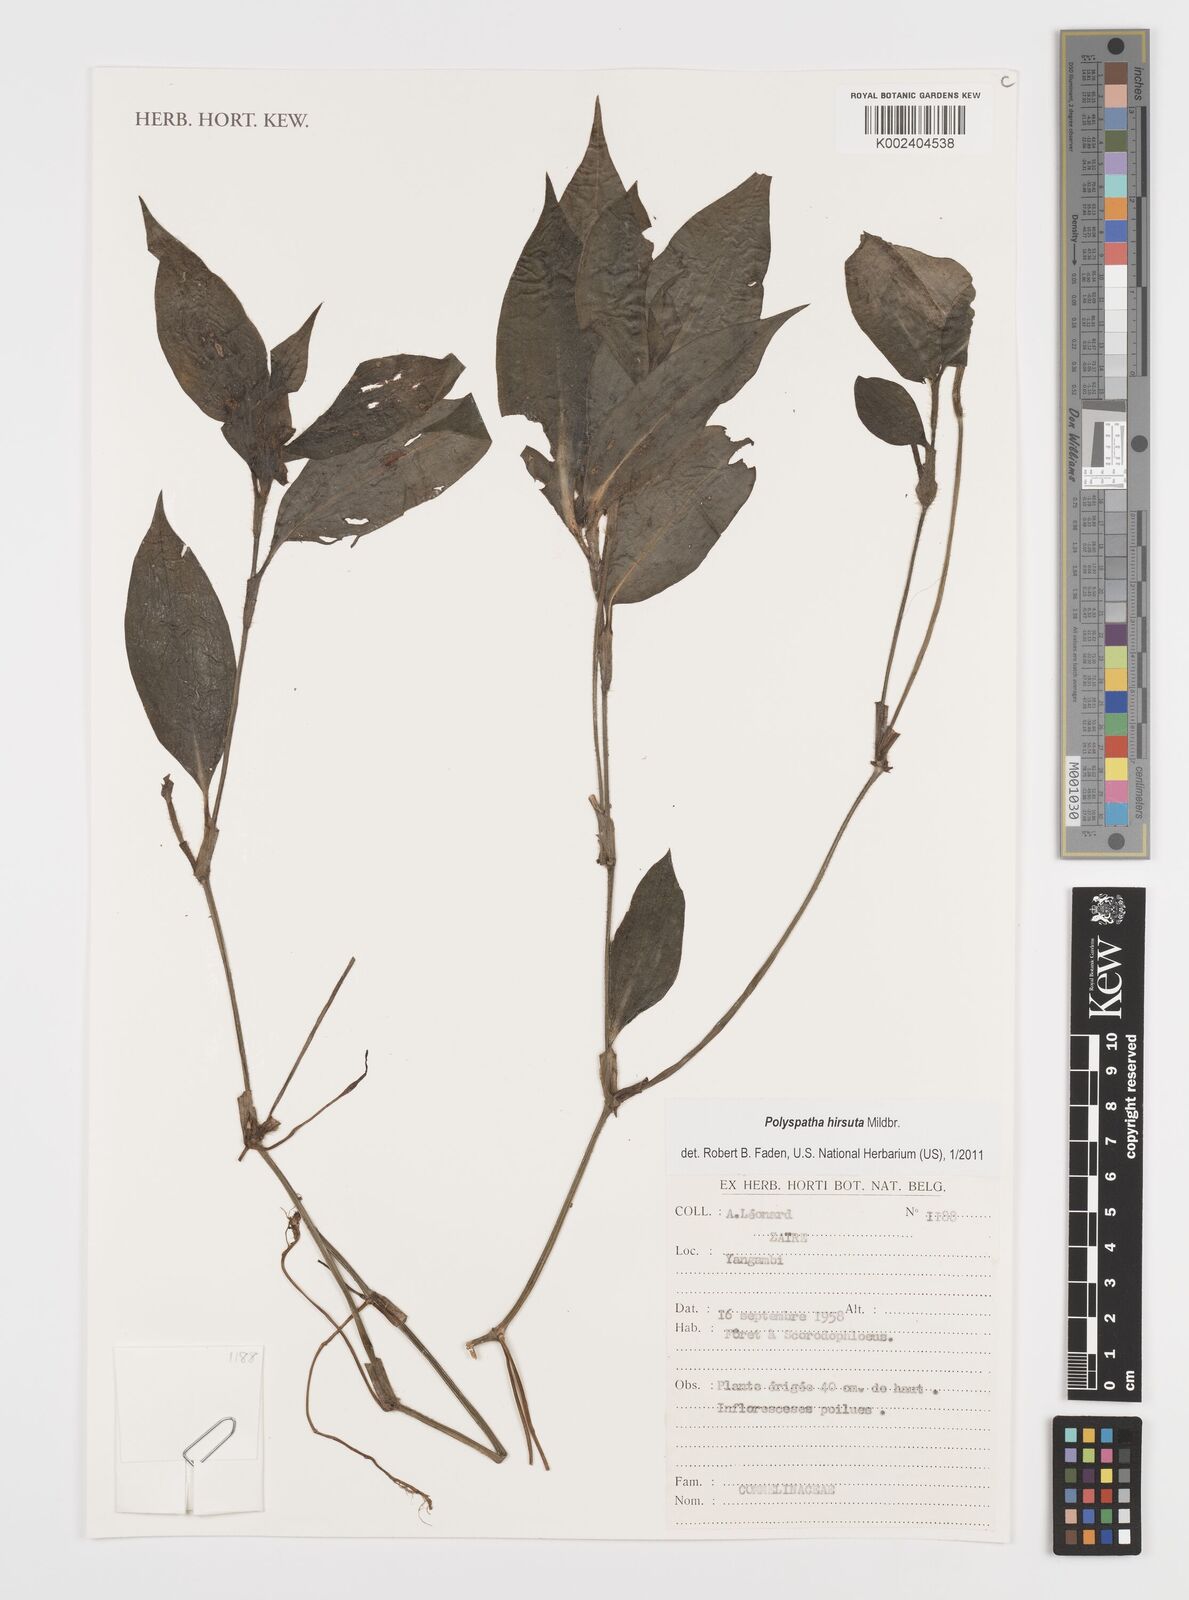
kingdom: Plantae
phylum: Tracheophyta
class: Liliopsida
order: Commelinales
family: Commelinaceae
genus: Polyspatha
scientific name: Polyspatha hirsuta
